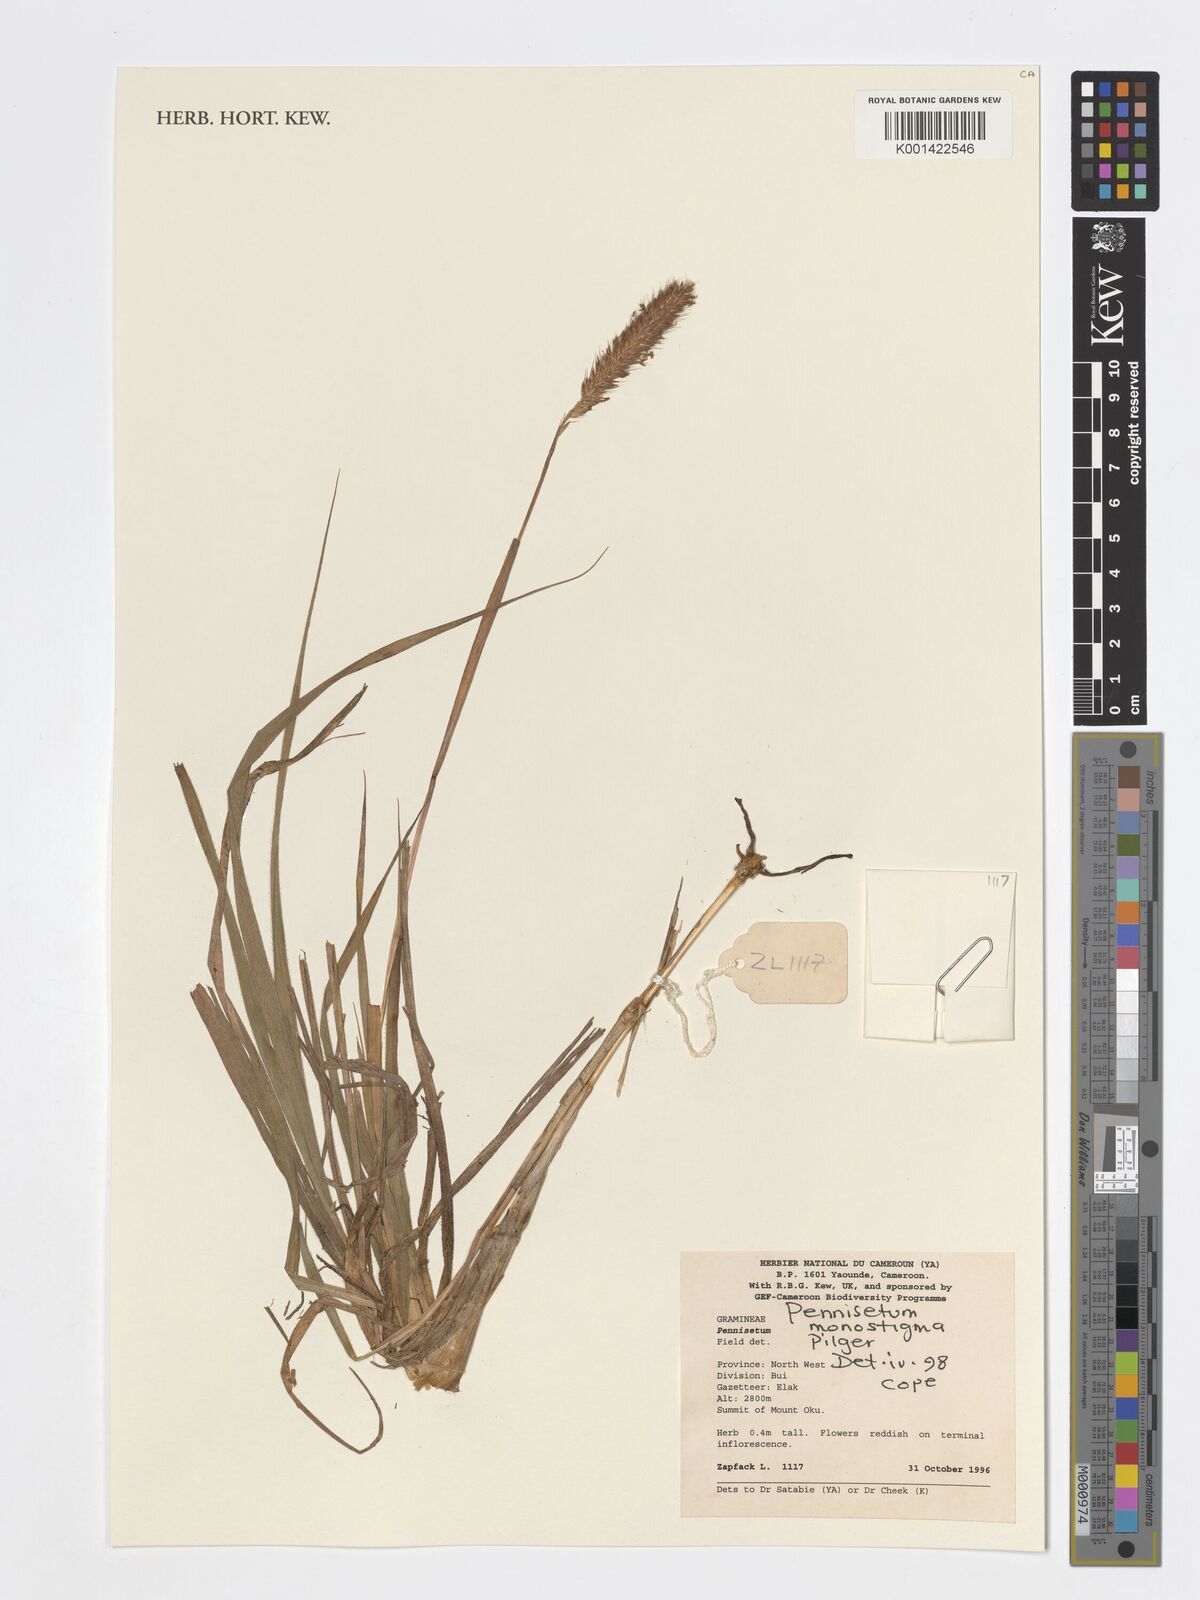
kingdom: Plantae
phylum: Tracheophyta
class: Liliopsida
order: Poales
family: Poaceae
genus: Cenchrus
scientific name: Cenchrus monostigma
